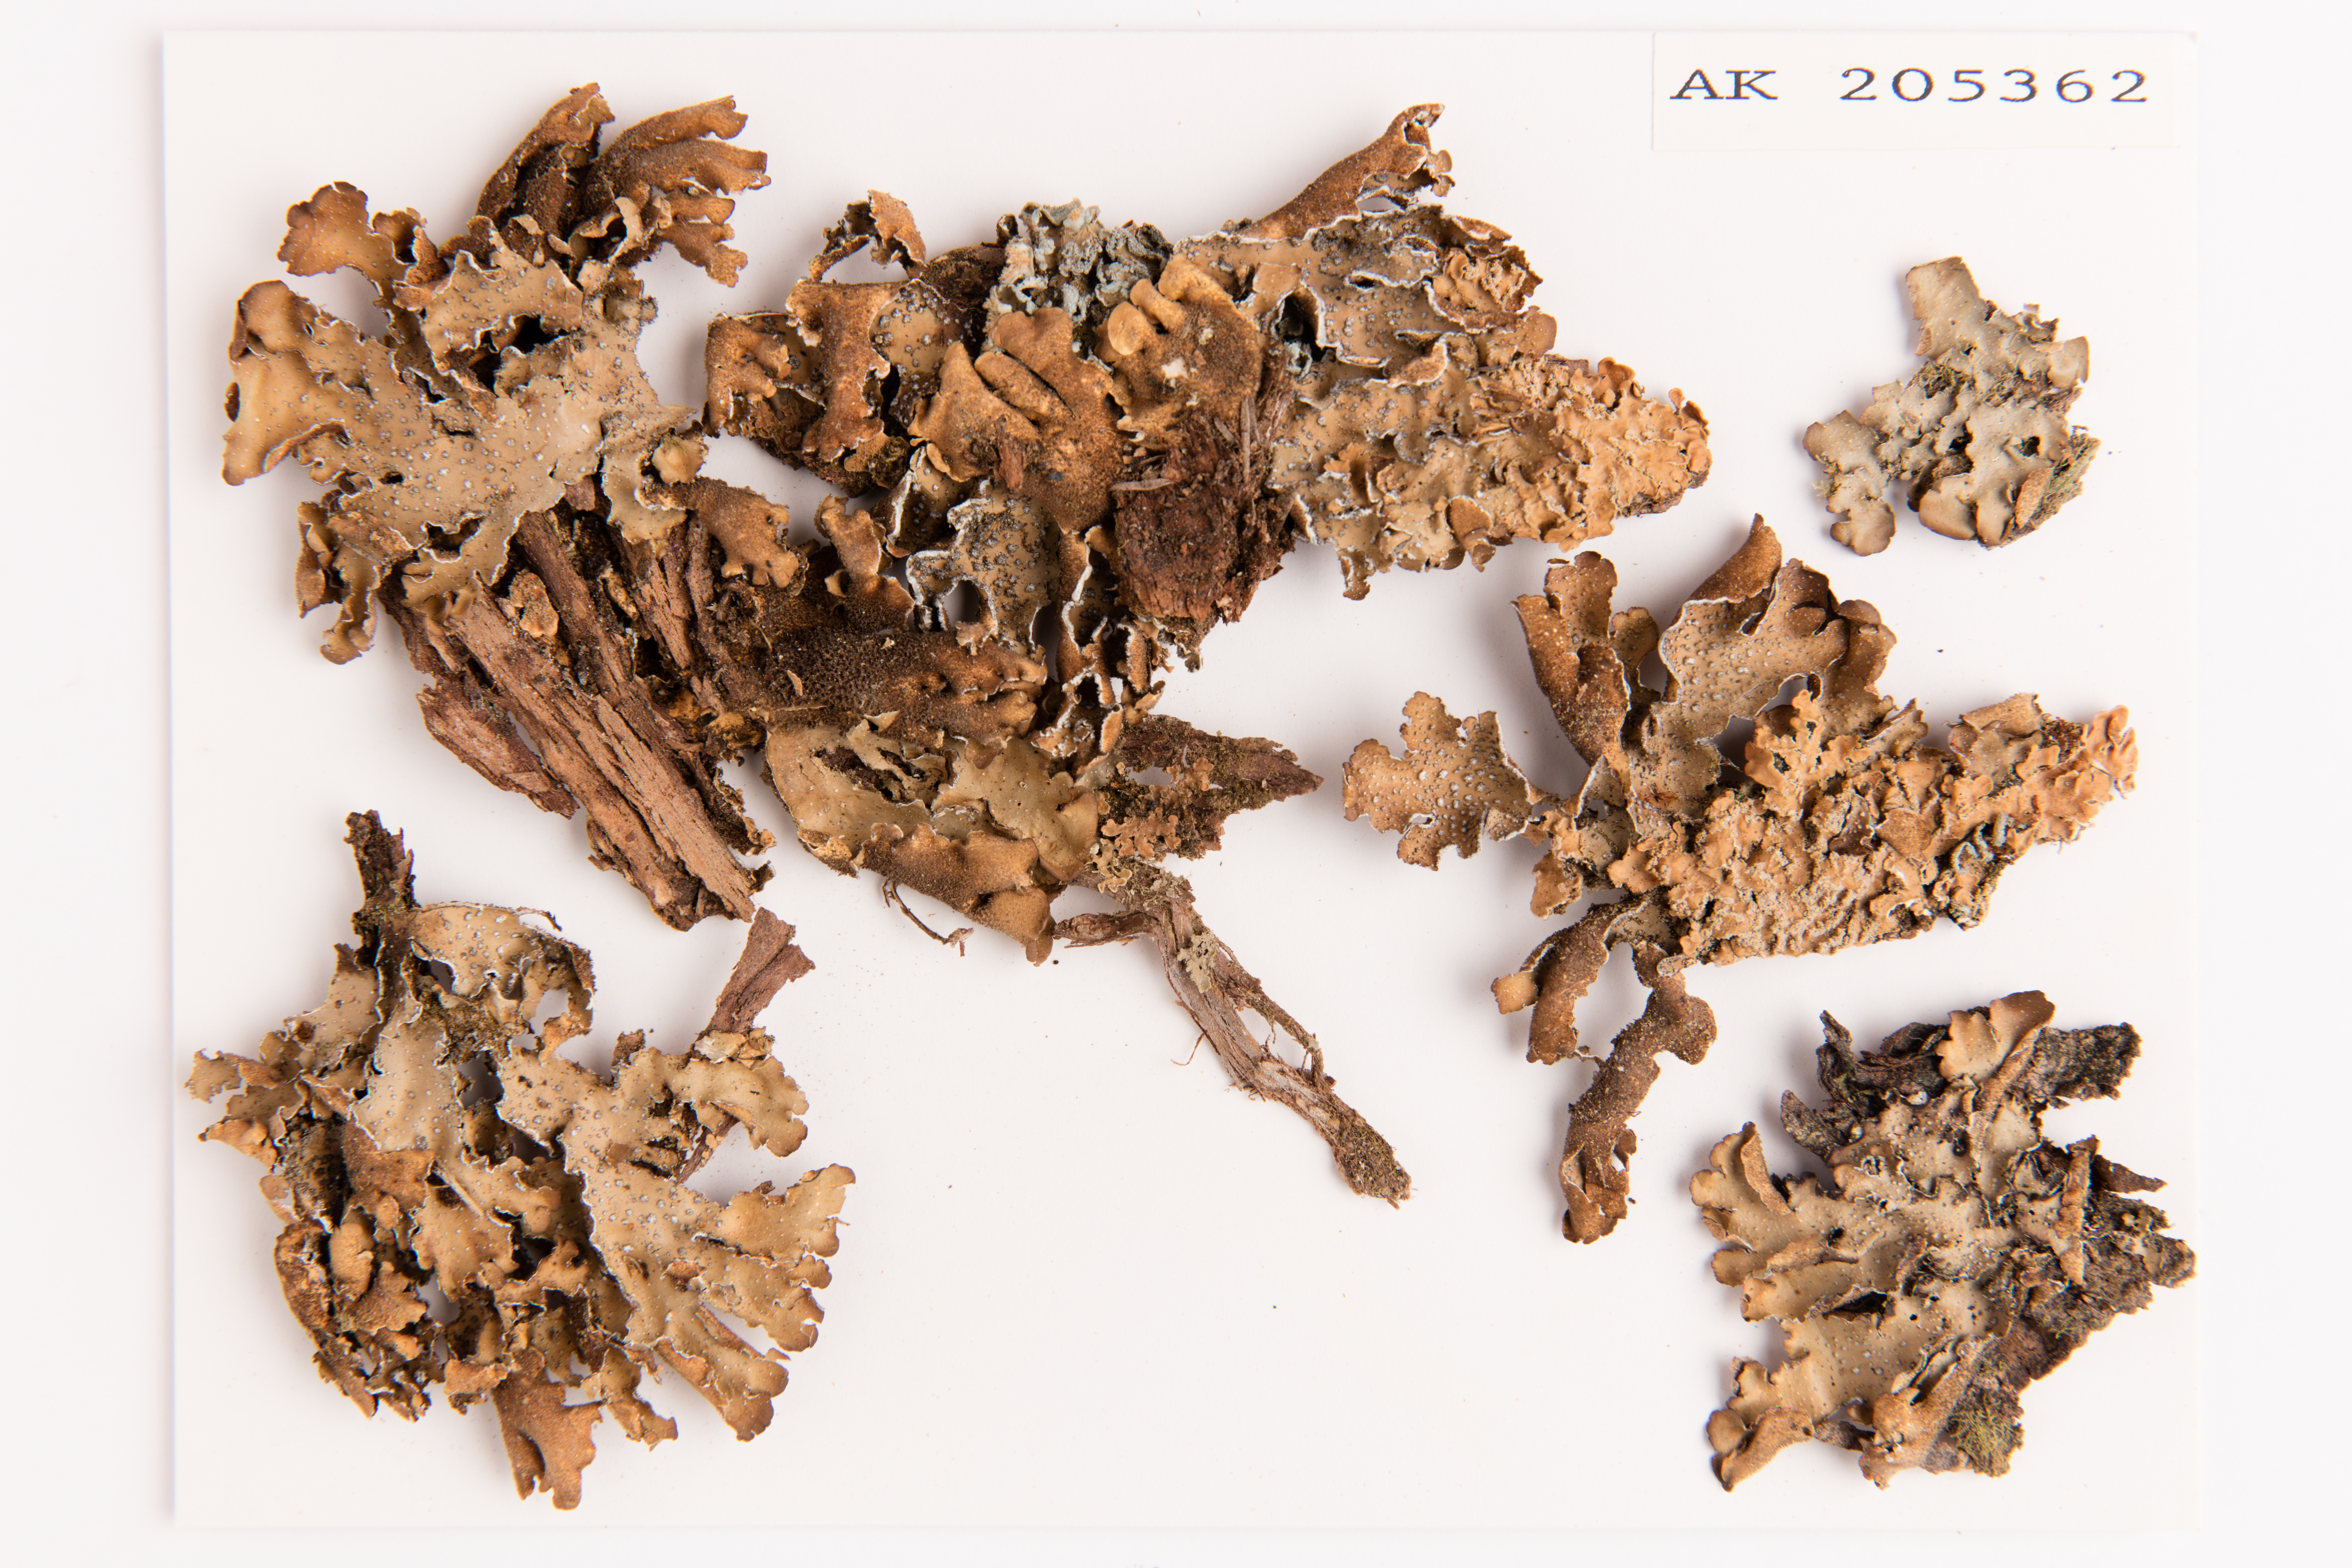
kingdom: Fungi
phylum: Ascomycota
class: Lecanoromycetes
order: Peltigerales
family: Lobariaceae
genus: Pseudocyphellaria
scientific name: Pseudocyphellaria argyracea
